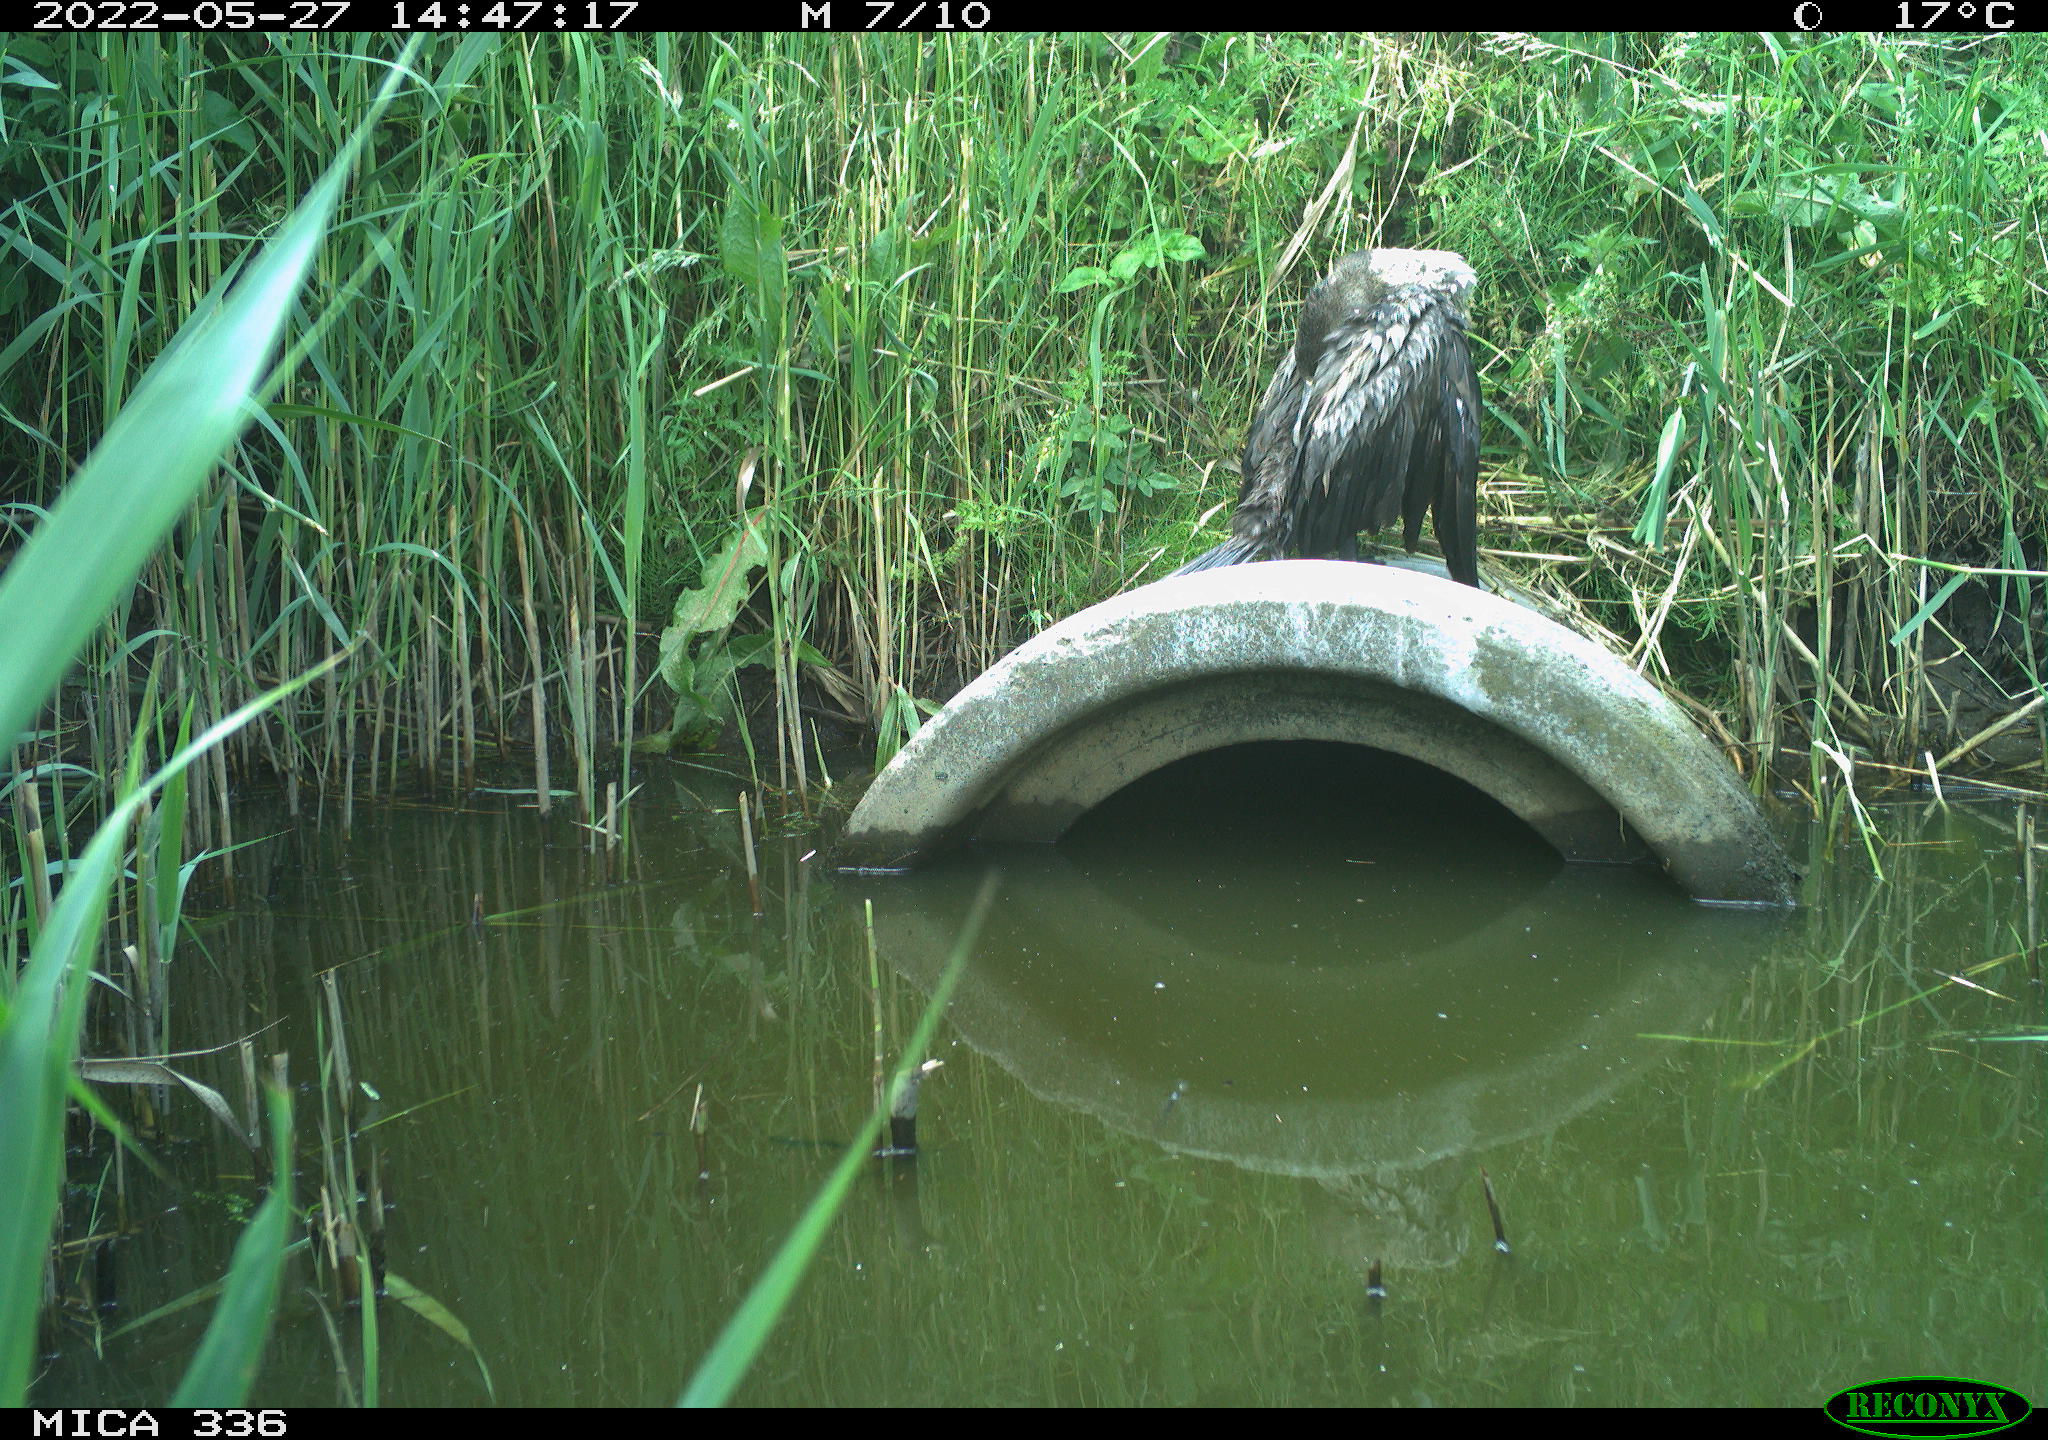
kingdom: Animalia
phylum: Chordata
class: Aves
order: Suliformes
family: Phalacrocoracidae
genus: Phalacrocorax
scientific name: Phalacrocorax carbo
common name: Great cormorant
